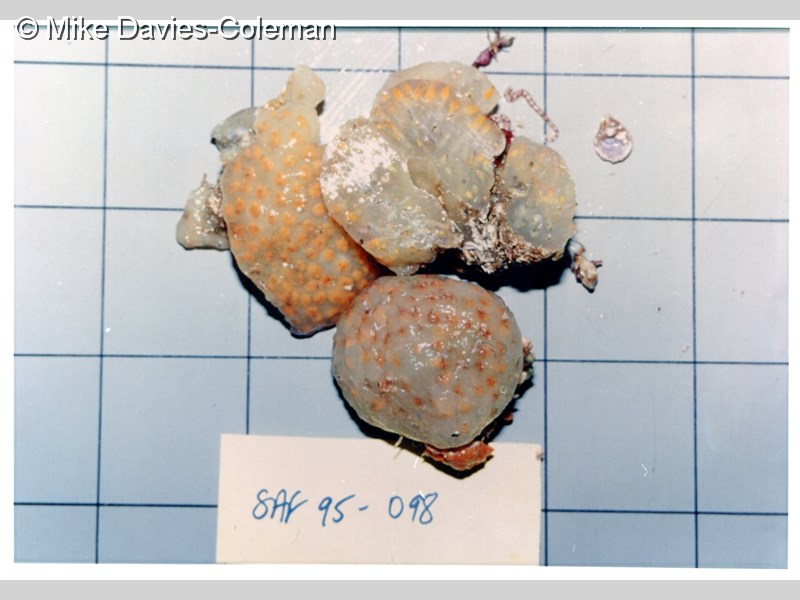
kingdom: Animalia
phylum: Chordata
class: Ascidiacea
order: Aplousobranchia
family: Polycitoridae
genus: Eucoelium
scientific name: Eucoelium
